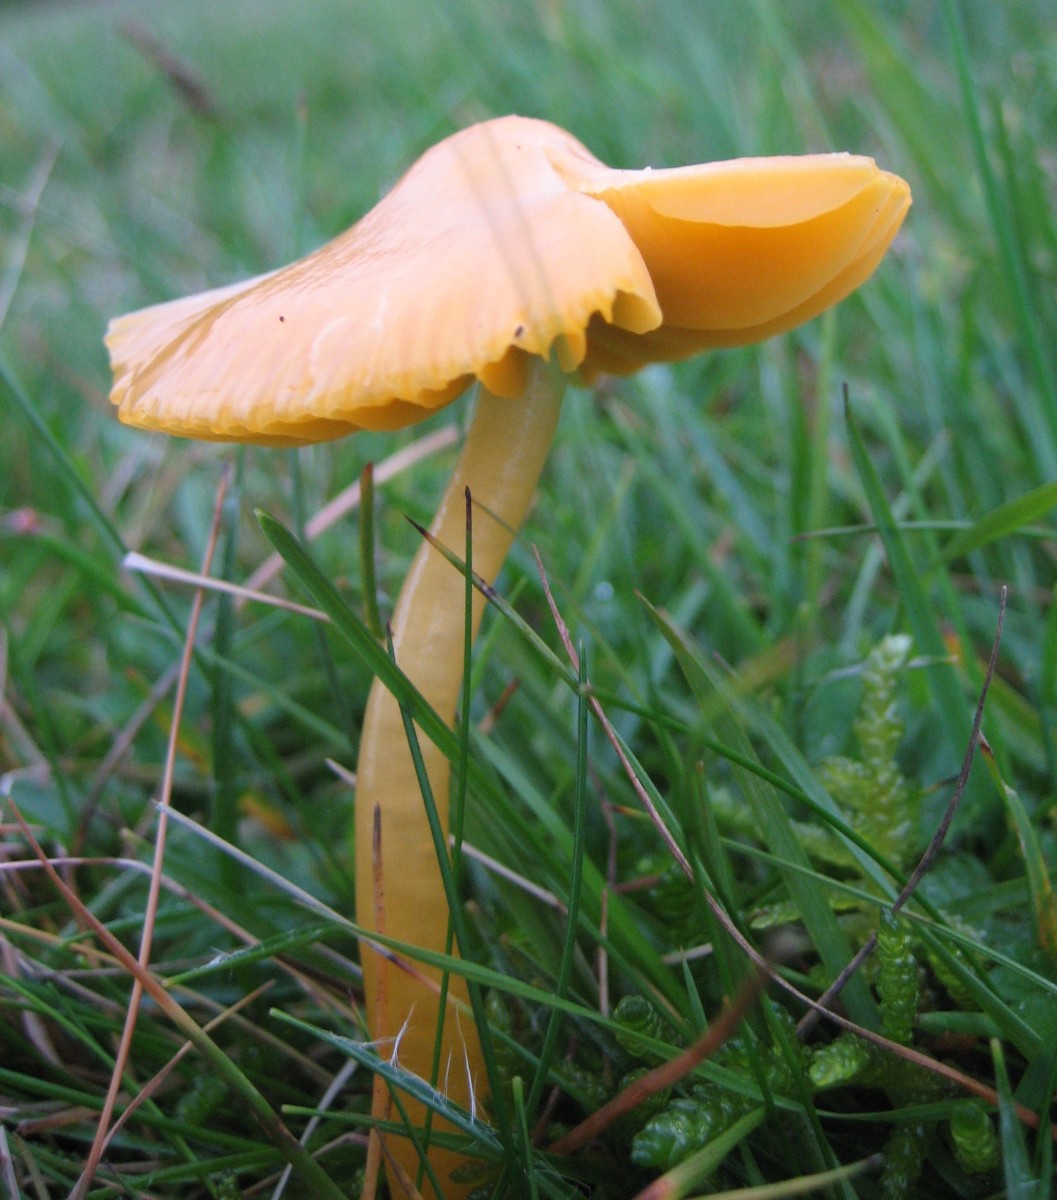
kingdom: Fungi
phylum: Basidiomycota
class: Agaricomycetes
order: Agaricales
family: Hygrophoraceae
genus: Gliophorus
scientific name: Gliophorus psittacinus
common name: papegøje-vokshat
